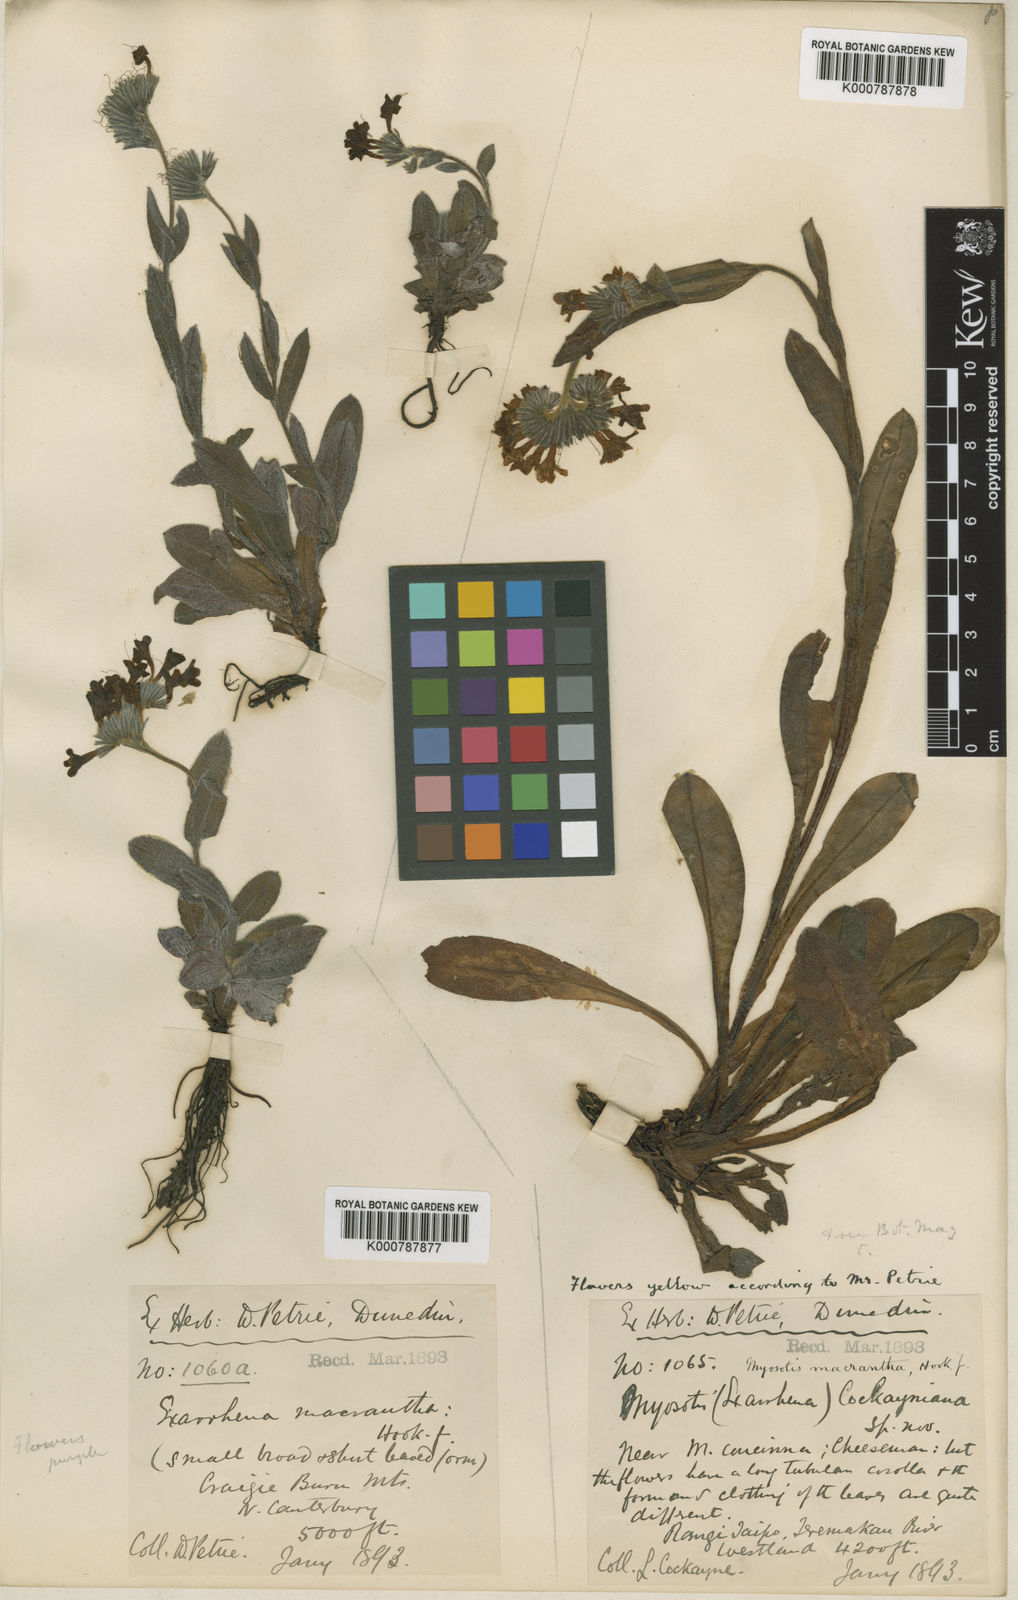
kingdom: Plantae
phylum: Tracheophyta
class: Magnoliopsida
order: Boraginales
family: Boraginaceae
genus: Myosotis
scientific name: Myosotis macrantha
